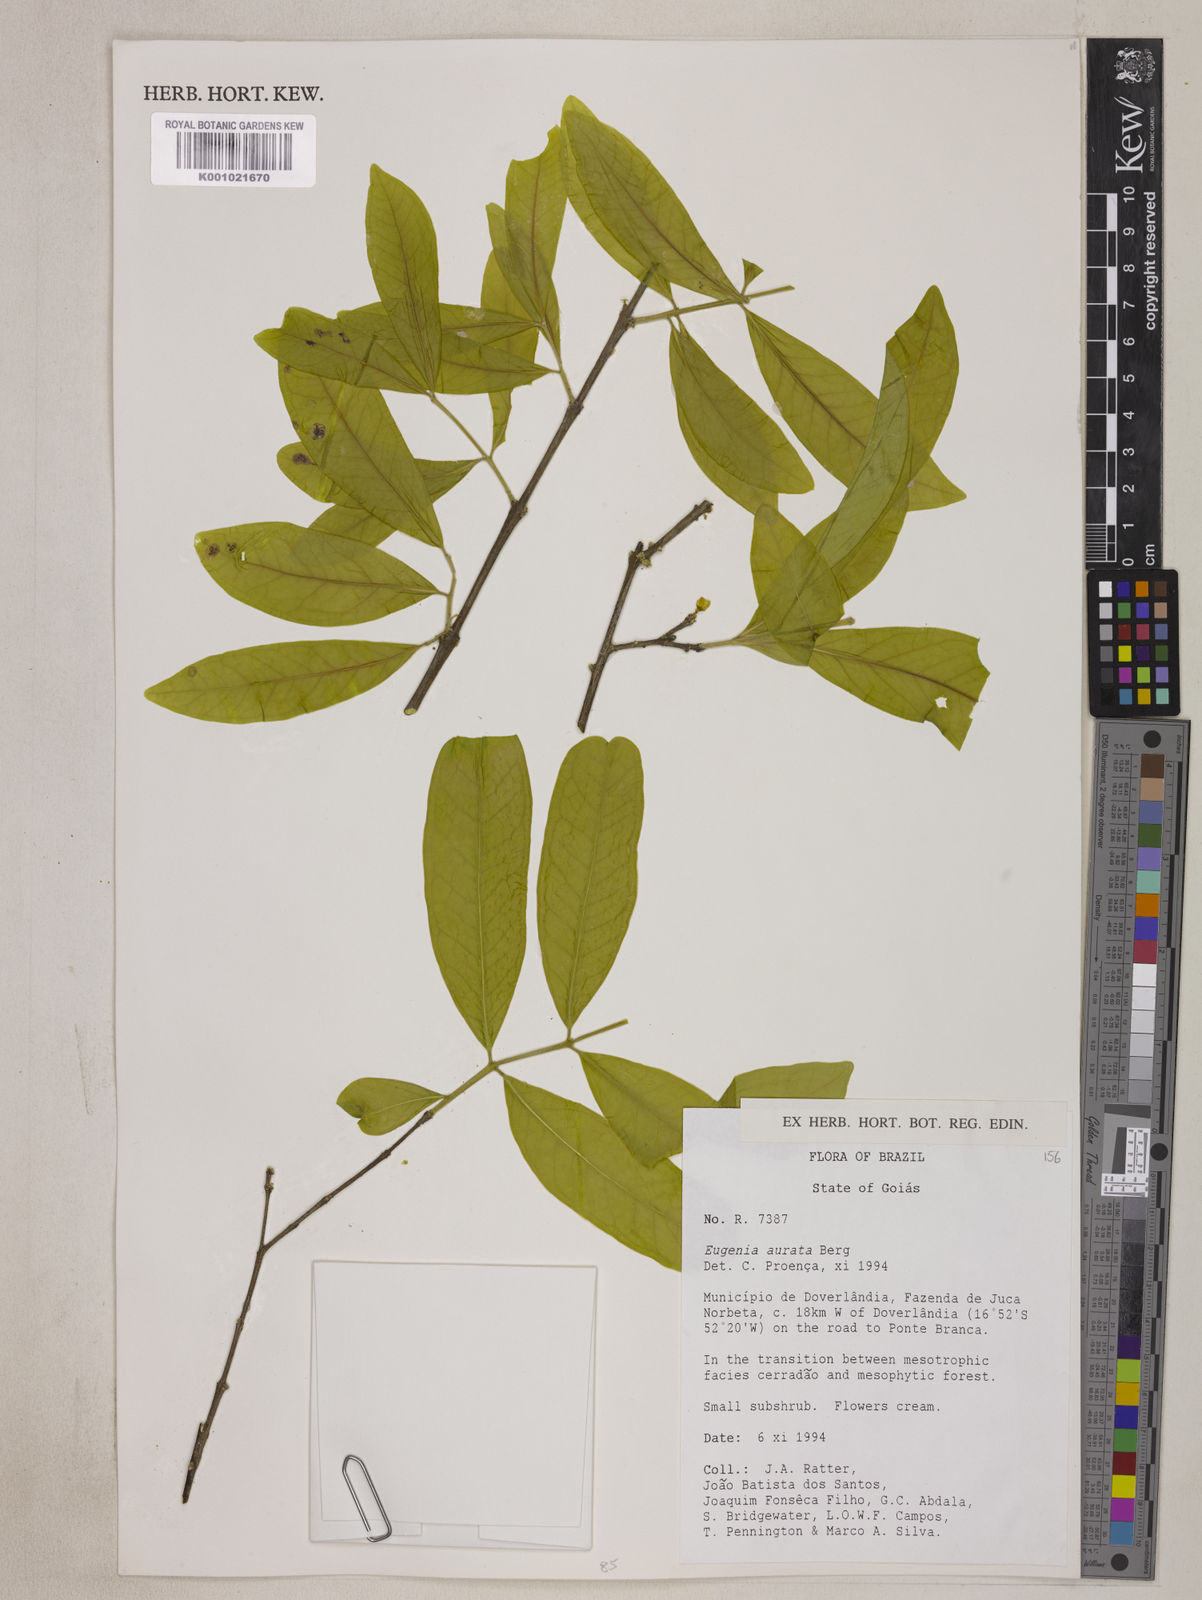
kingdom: Plantae
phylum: Tracheophyta
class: Magnoliopsida
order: Myrtales
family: Myrtaceae
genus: Eugenia
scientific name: Eugenia aurata
